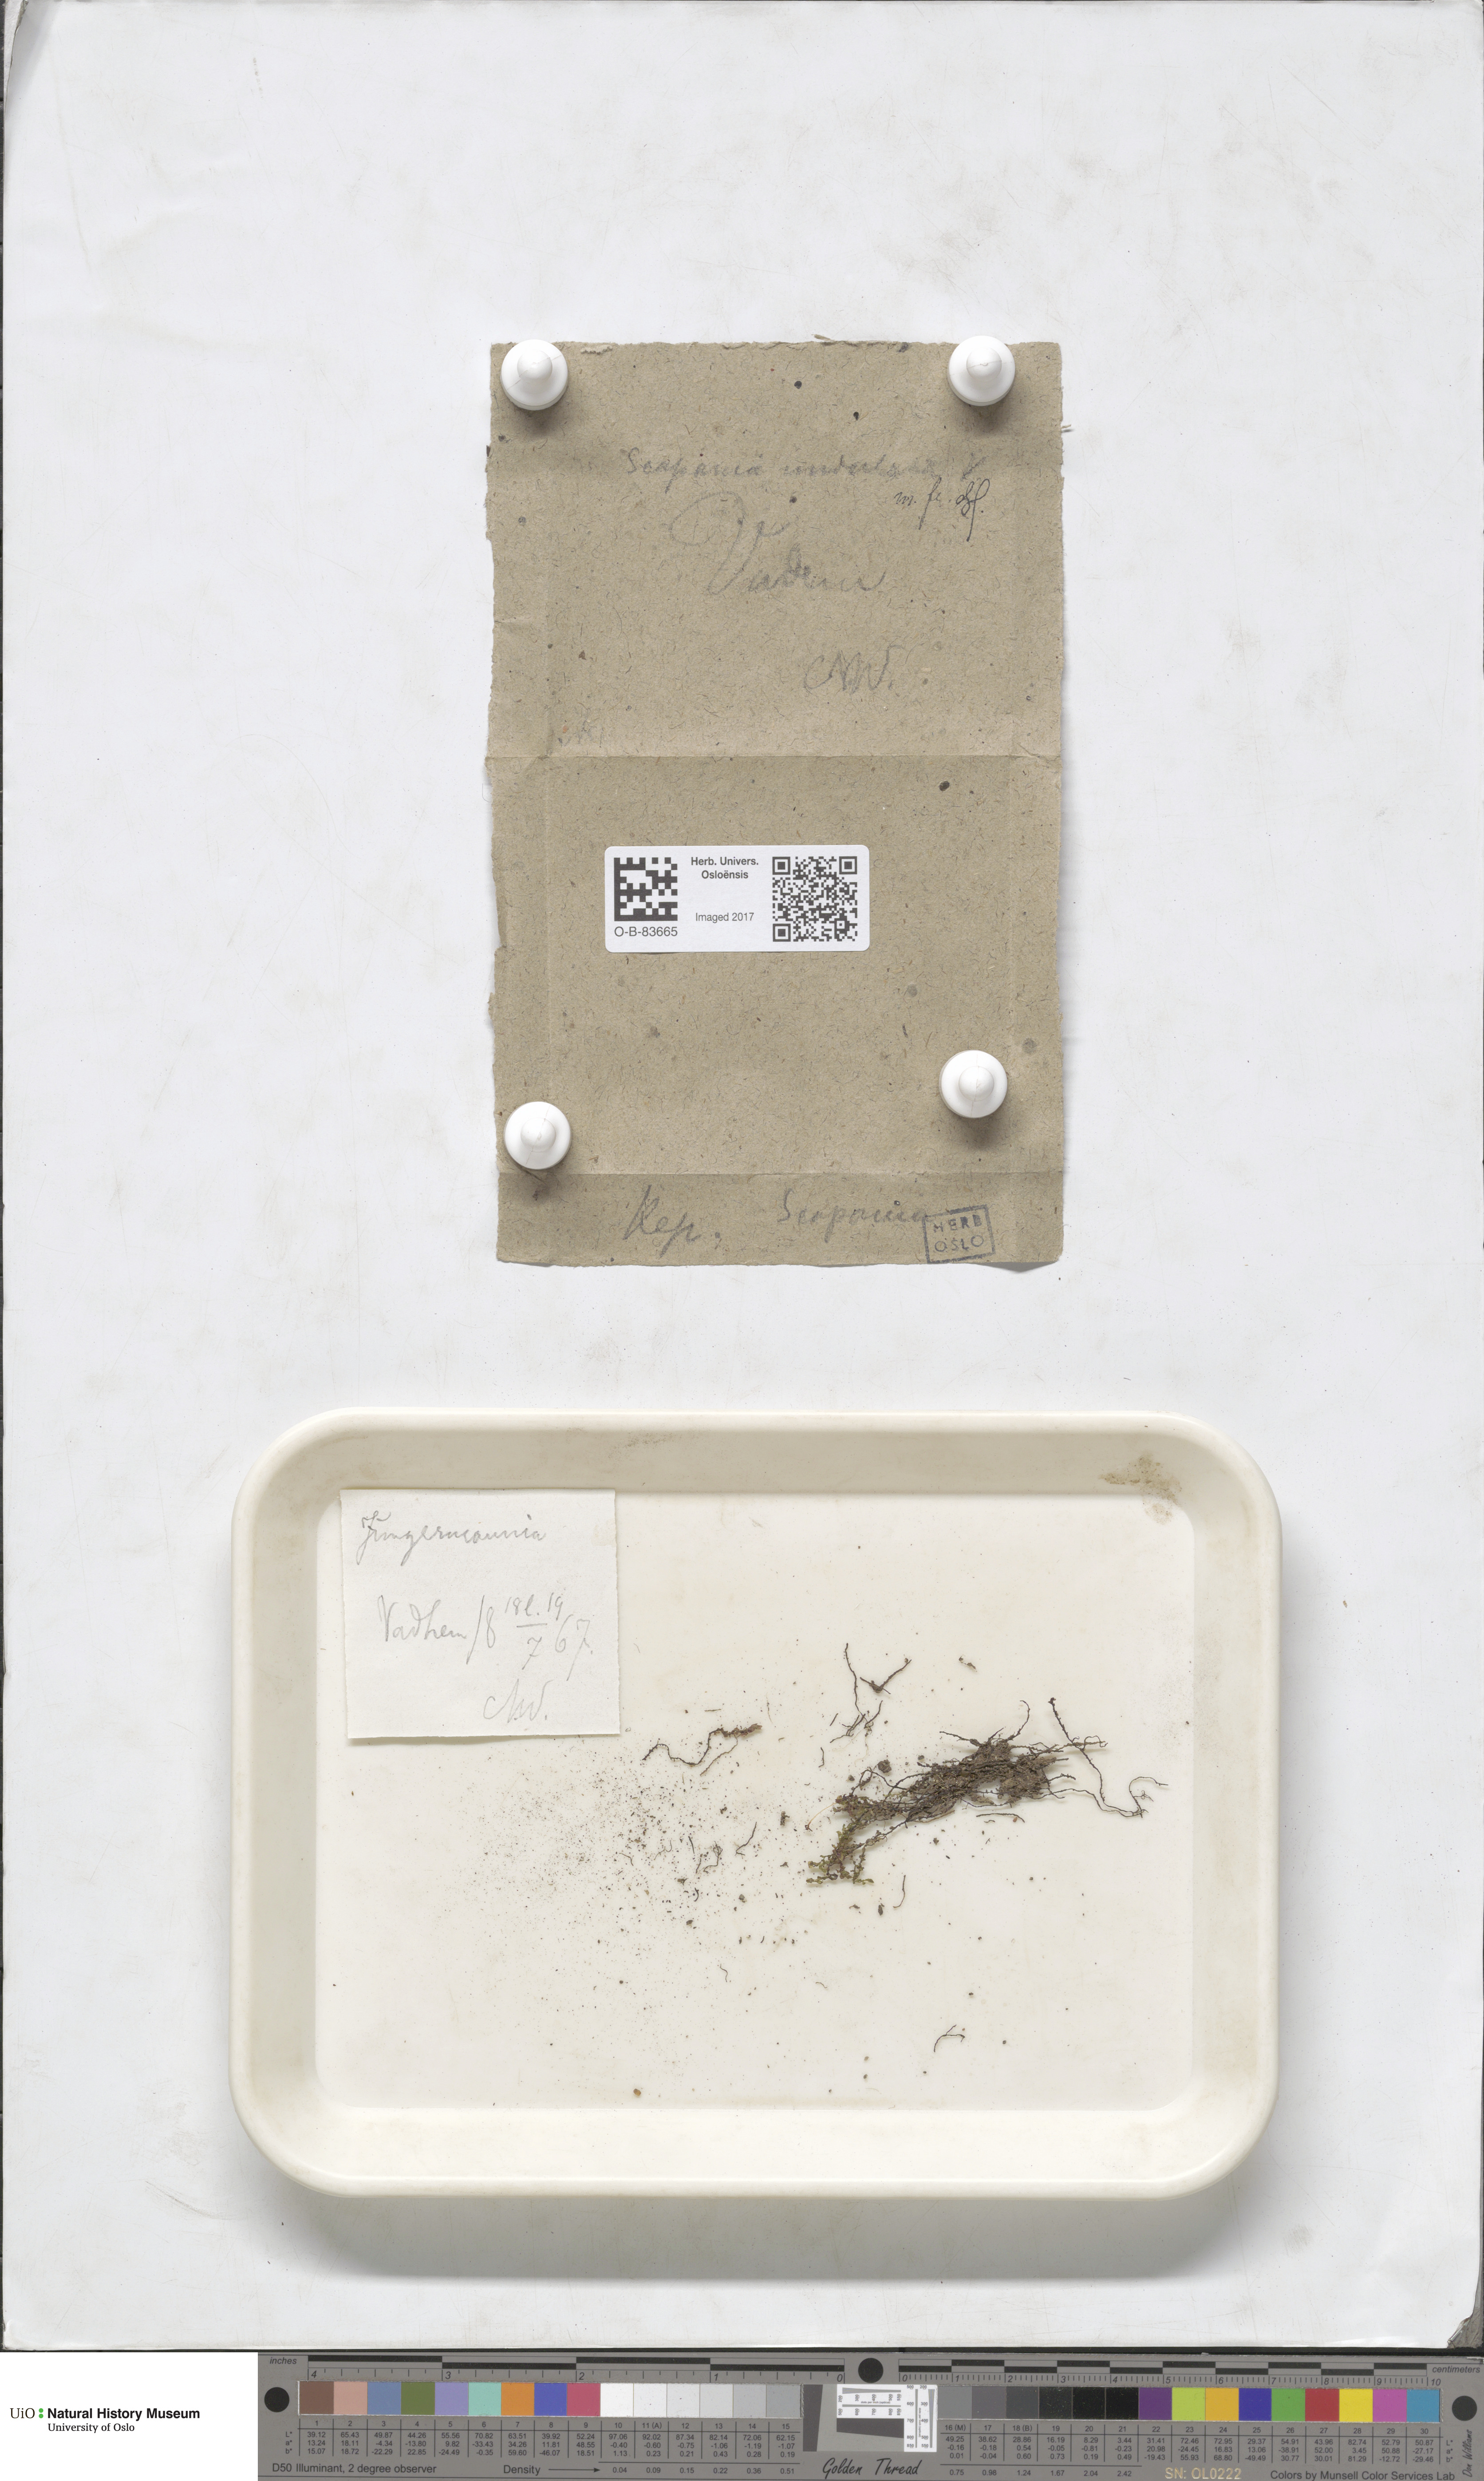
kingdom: Plantae
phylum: Marchantiophyta
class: Jungermanniopsida
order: Jungermanniales
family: Scapaniaceae
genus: Scapania
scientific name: Scapania undulata
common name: Water earwort
